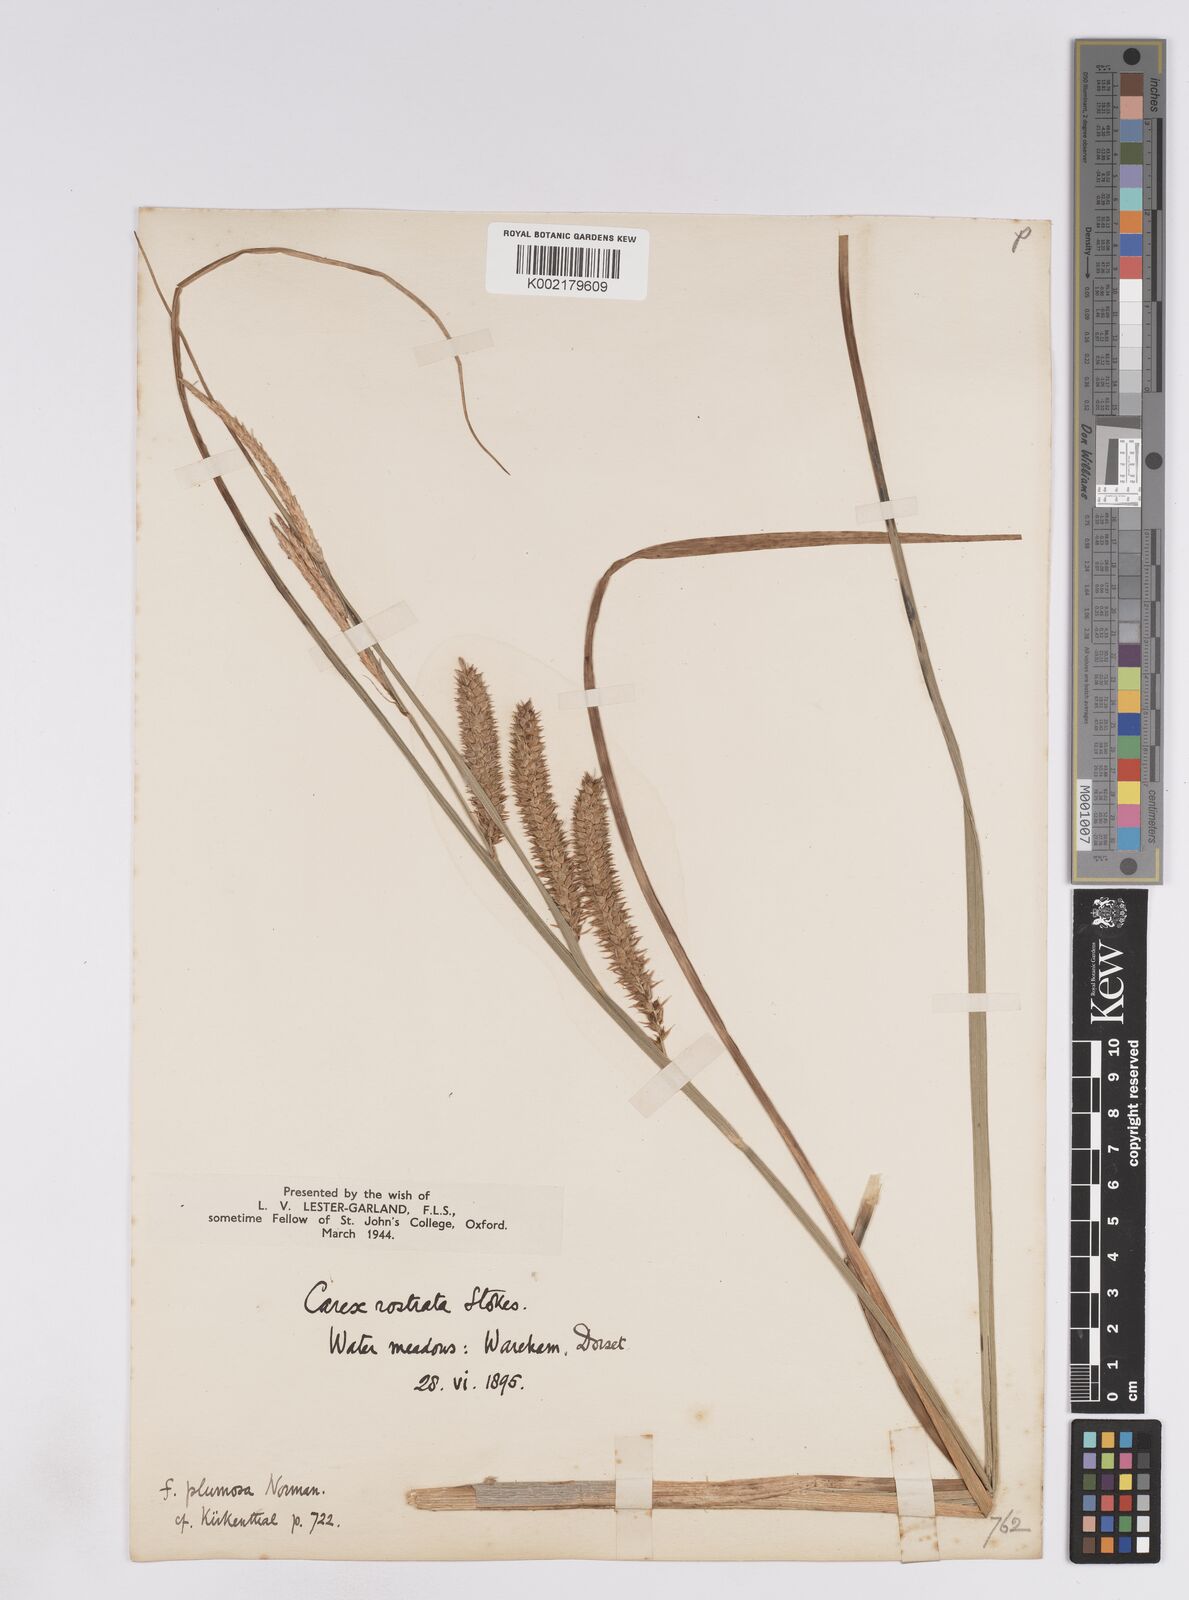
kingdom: Plantae
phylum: Tracheophyta
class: Liliopsida
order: Poales
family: Cyperaceae
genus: Carex
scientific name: Carex rostrata
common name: Bottle sedge
